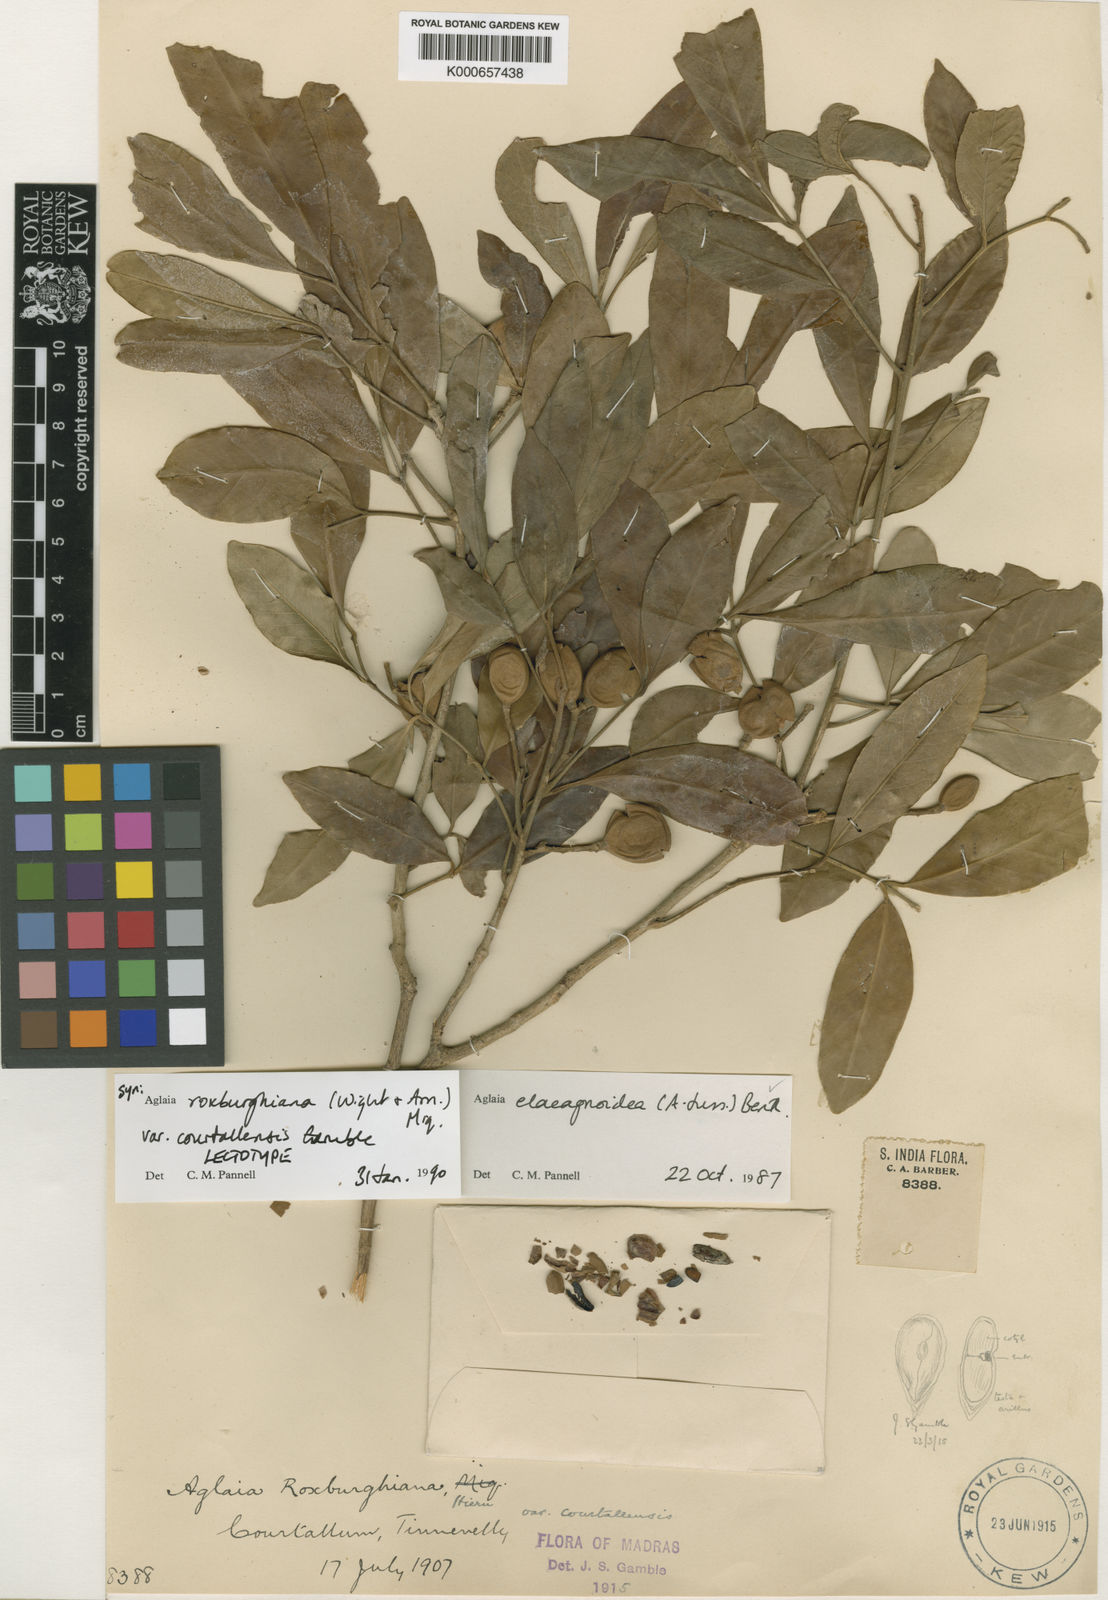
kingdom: Plantae
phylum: Tracheophyta
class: Magnoliopsida
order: Sapindales
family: Meliaceae
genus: Aglaia
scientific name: Aglaia elaeagnoidea
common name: Droopyleaf
